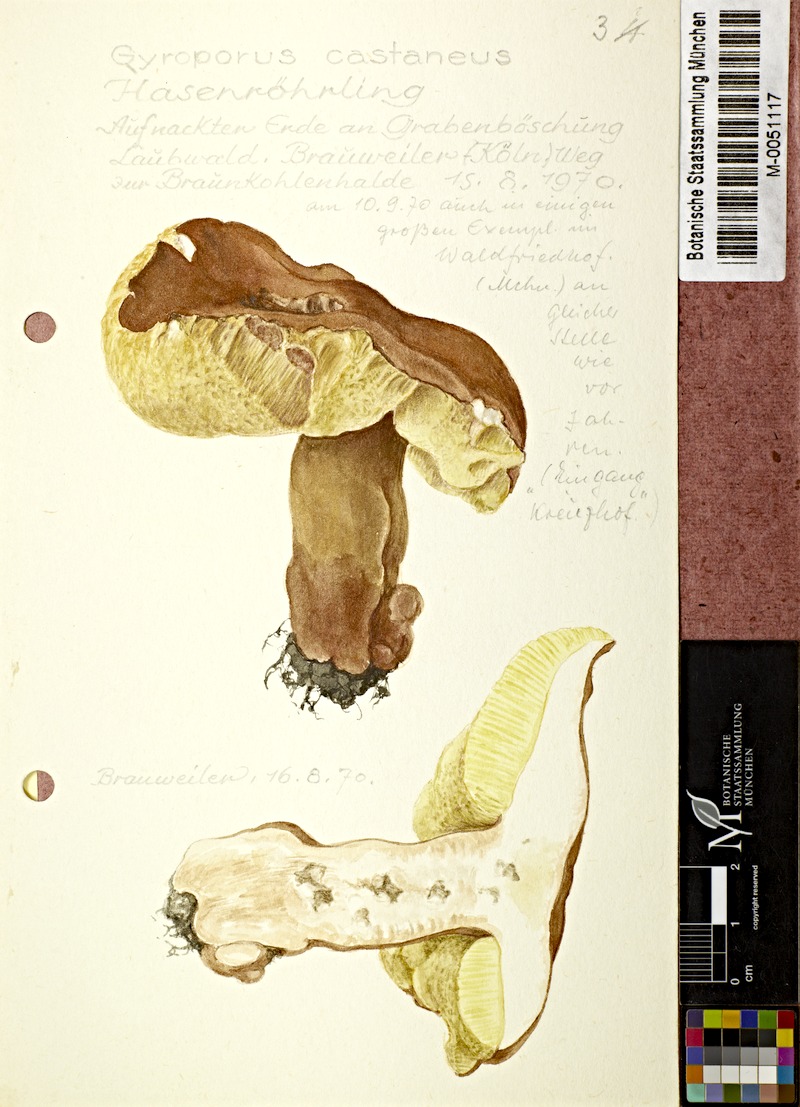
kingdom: Fungi
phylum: Basidiomycota
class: Agaricomycetes
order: Boletales
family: Gyroporaceae
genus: Gyroporus
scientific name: Gyroporus castaneus
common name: Chestnut bolete
